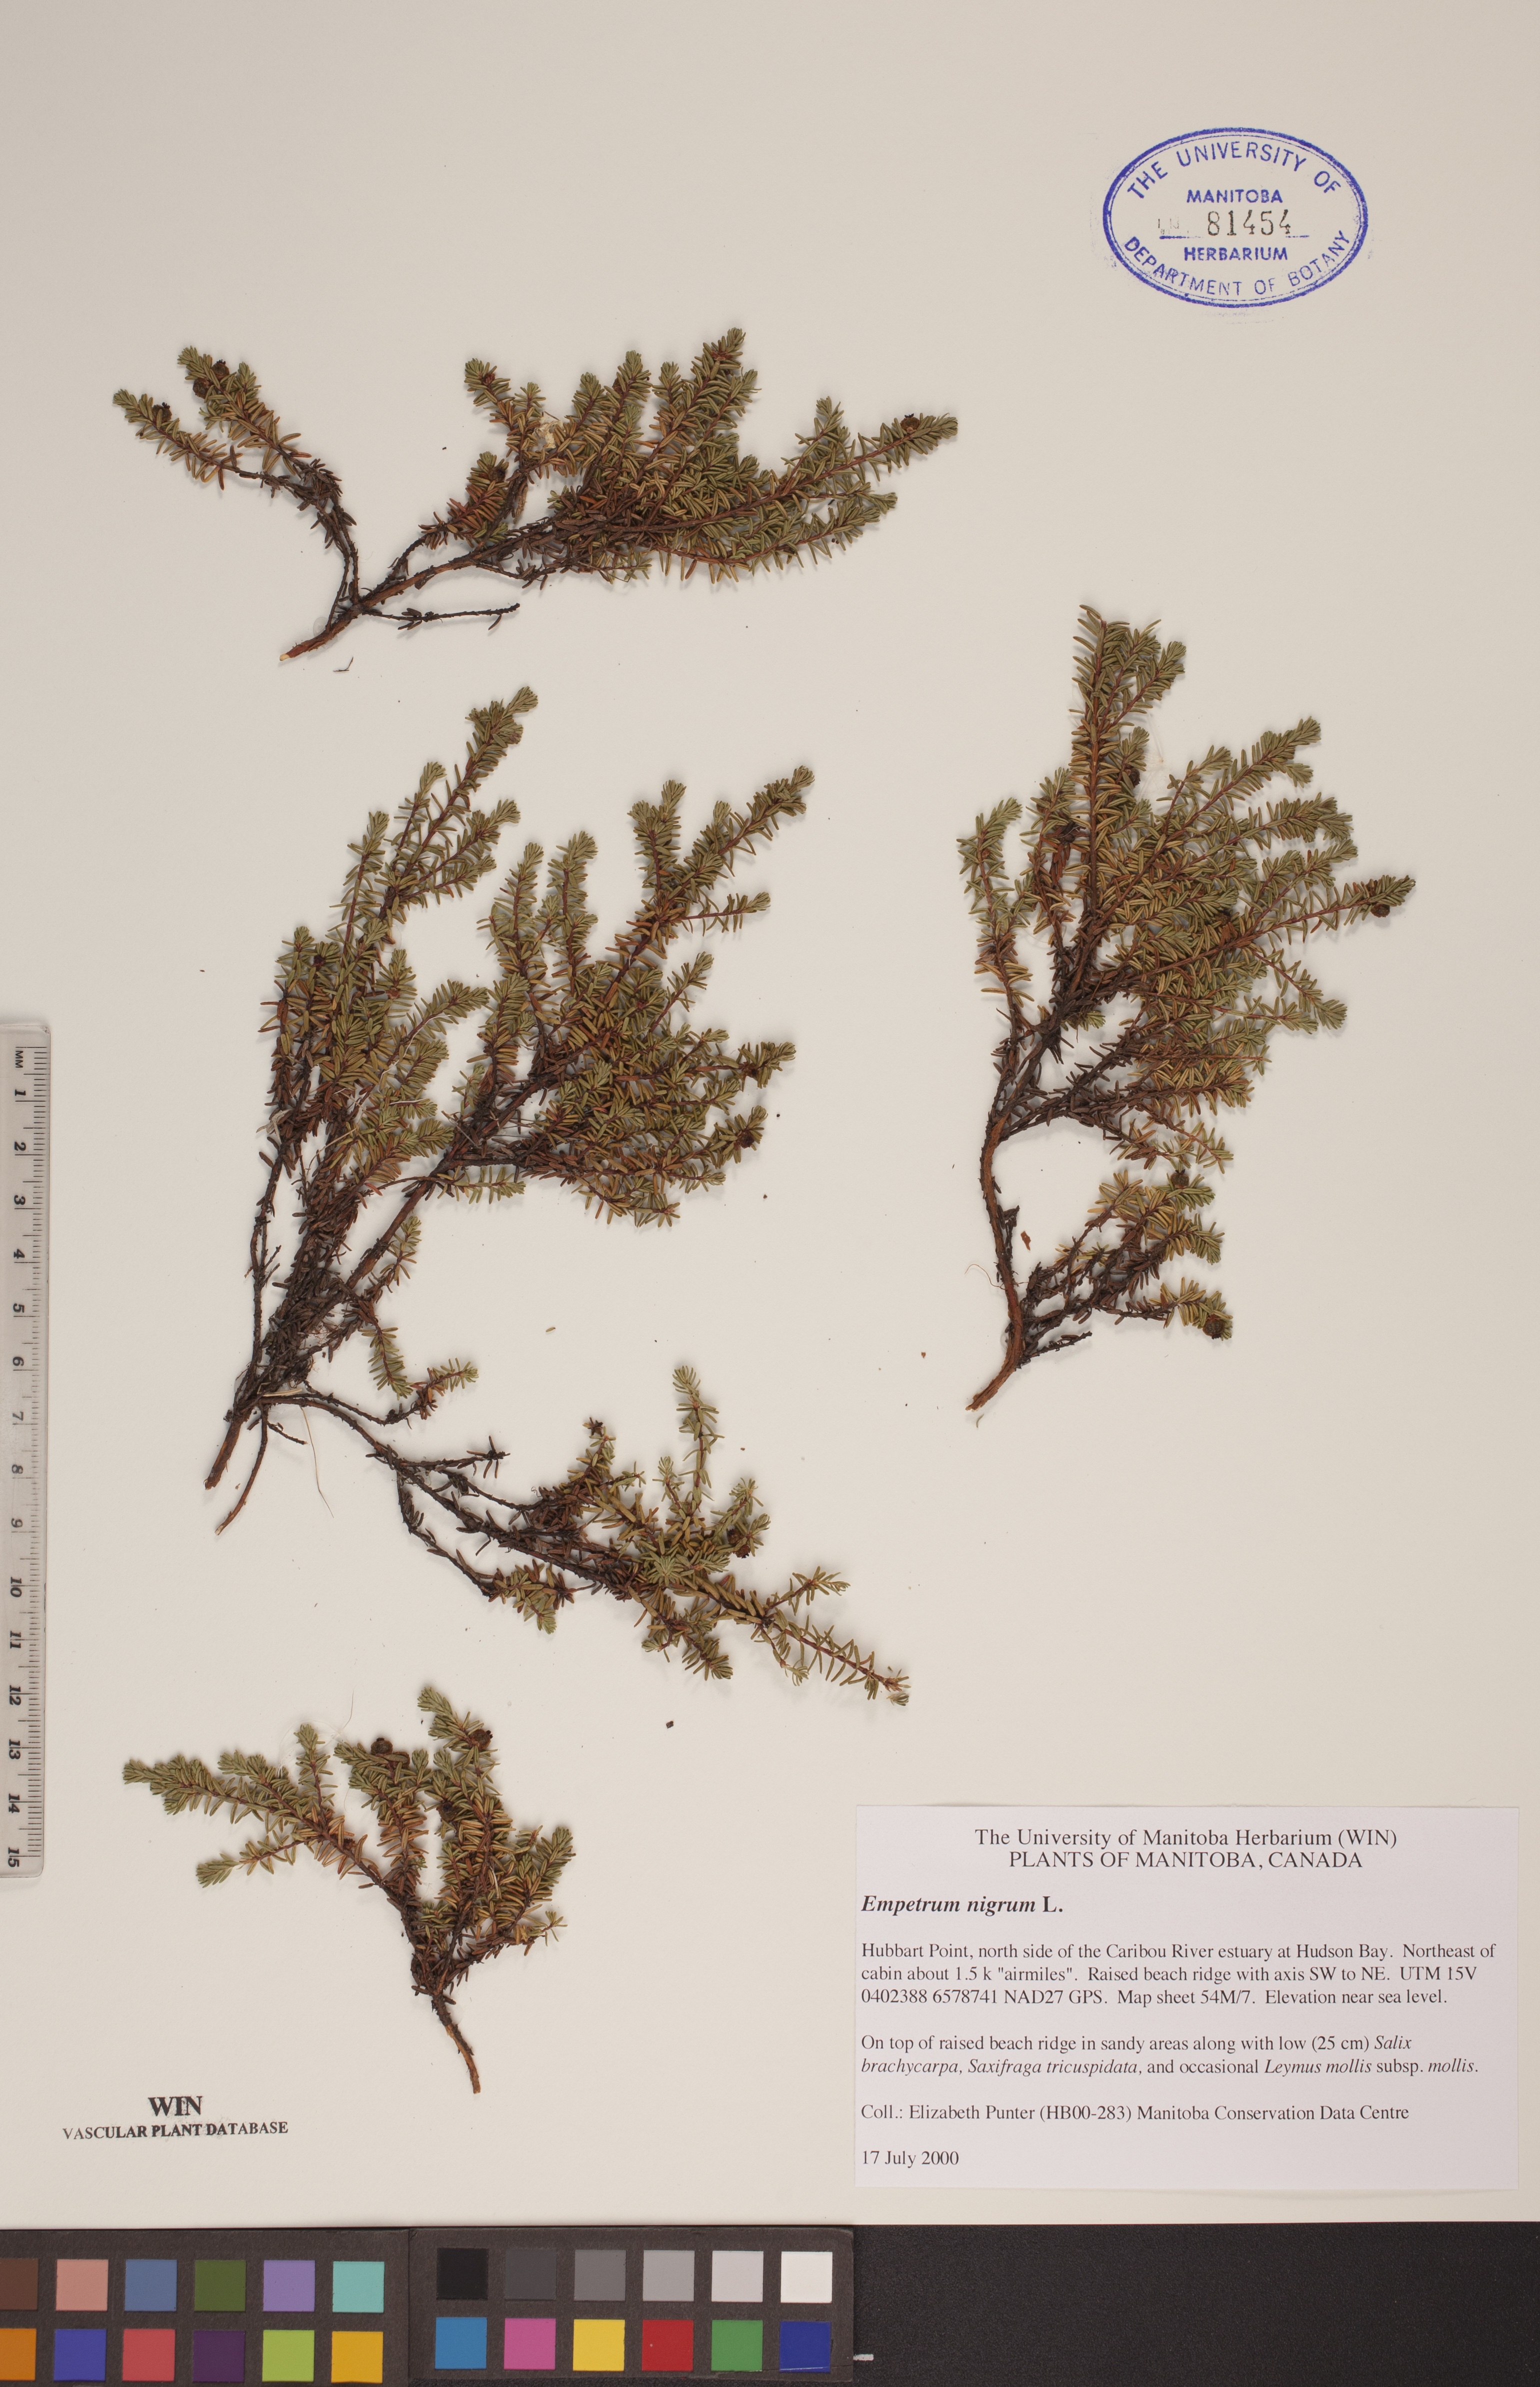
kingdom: Plantae
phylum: Tracheophyta
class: Magnoliopsida
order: Ericales
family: Ericaceae
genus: Empetrum
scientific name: Empetrum nigrum
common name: Black crowberry
